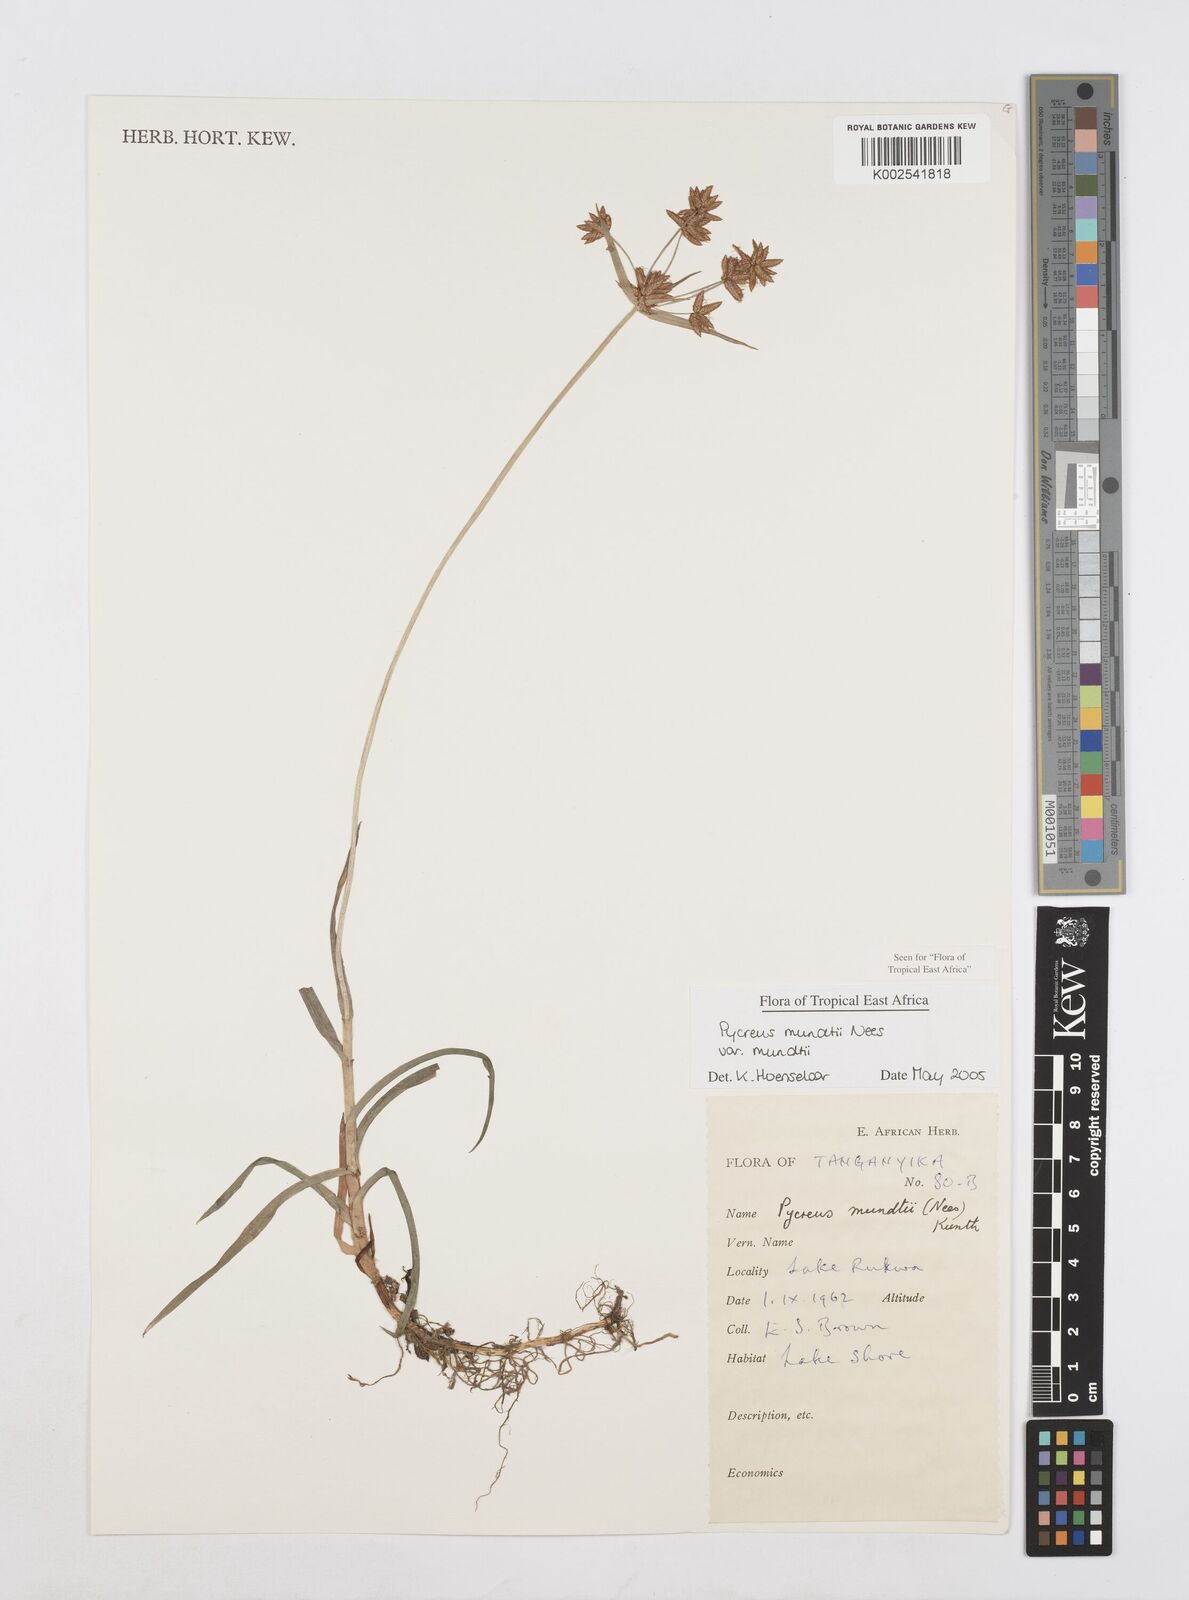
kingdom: Plantae
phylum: Tracheophyta
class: Liliopsida
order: Poales
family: Cyperaceae
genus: Cyperus
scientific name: Cyperus mundii
